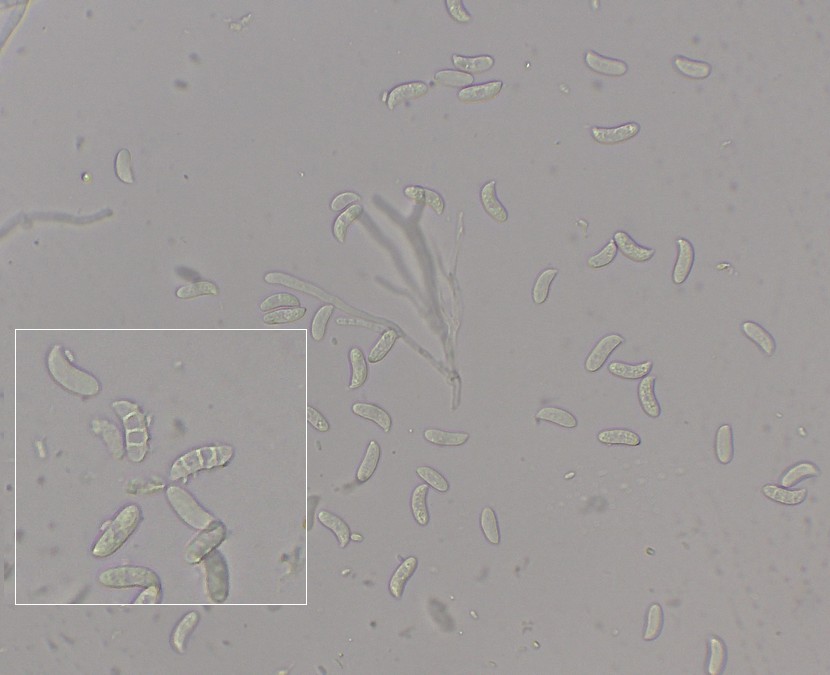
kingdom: Fungi
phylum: Basidiomycota
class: Dacrymycetes
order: Dacrymycetales
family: Cerinomycetaceae
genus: Cerinomyces
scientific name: Cerinomyces tortus
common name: grumset tåresvamp
